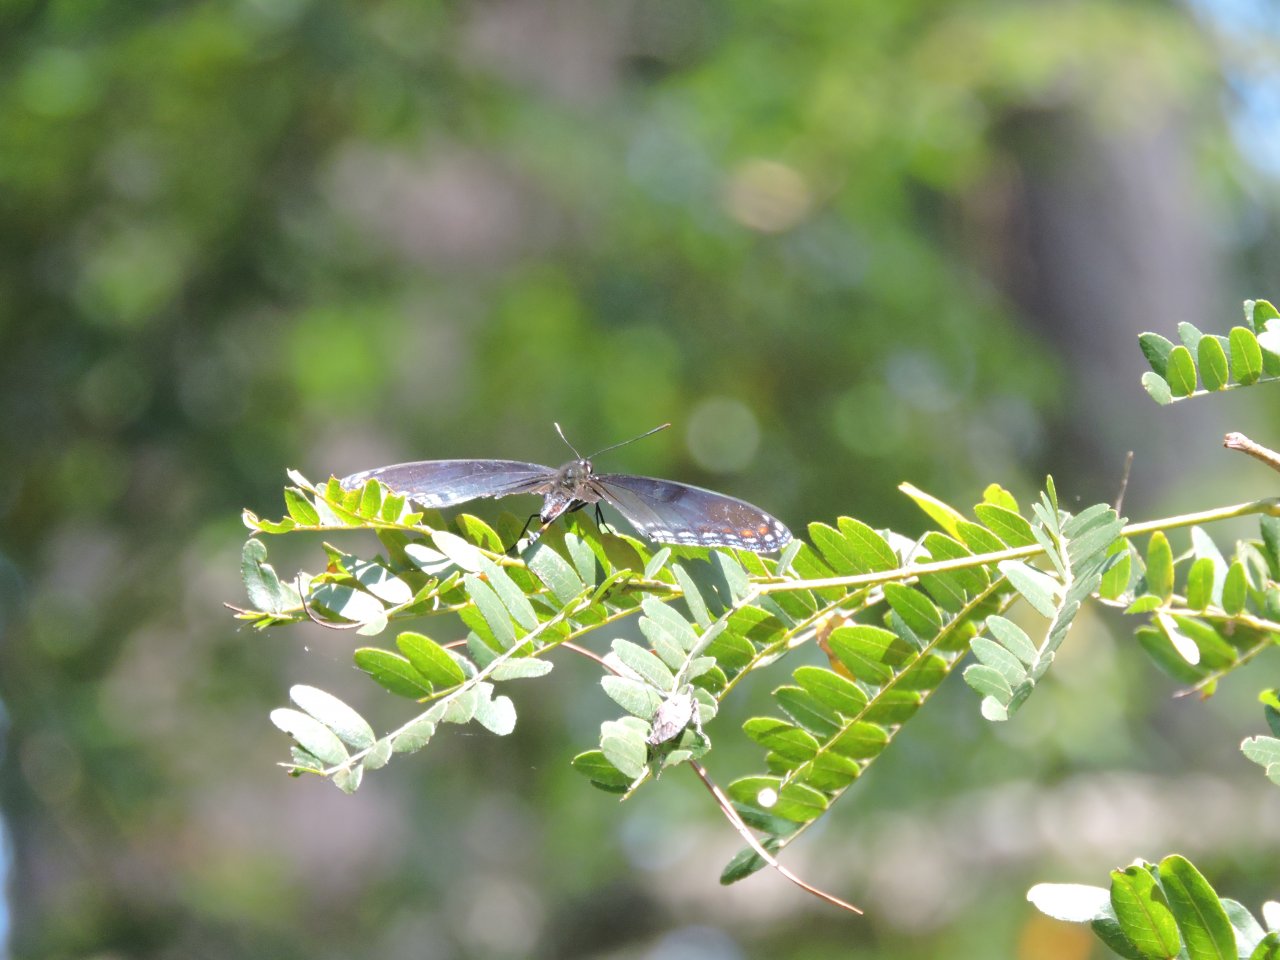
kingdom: Animalia
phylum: Arthropoda
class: Insecta
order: Lepidoptera
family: Nymphalidae
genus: Limenitis
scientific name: Limenitis arthemis
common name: Red-spotted Admiral
